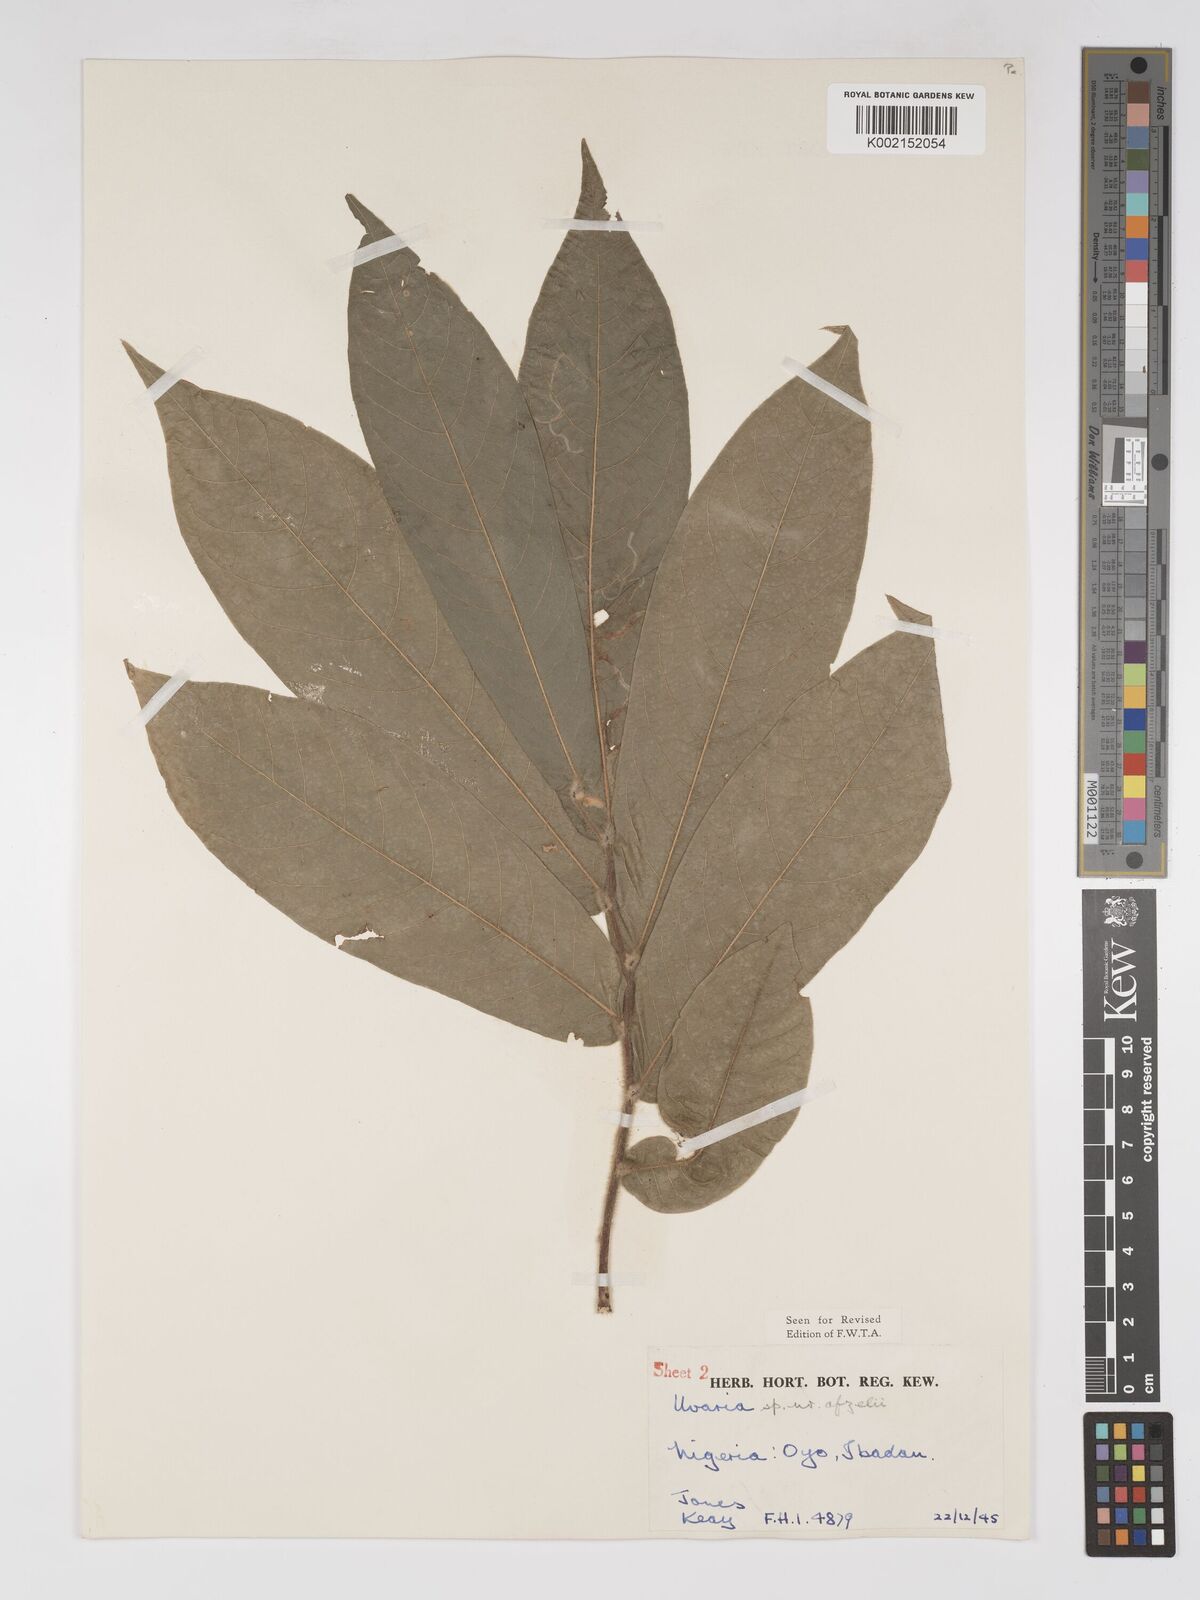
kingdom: Plantae
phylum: Tracheophyta
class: Magnoliopsida
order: Magnoliales
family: Annonaceae
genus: Uvaria
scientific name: Uvaria afzelii
